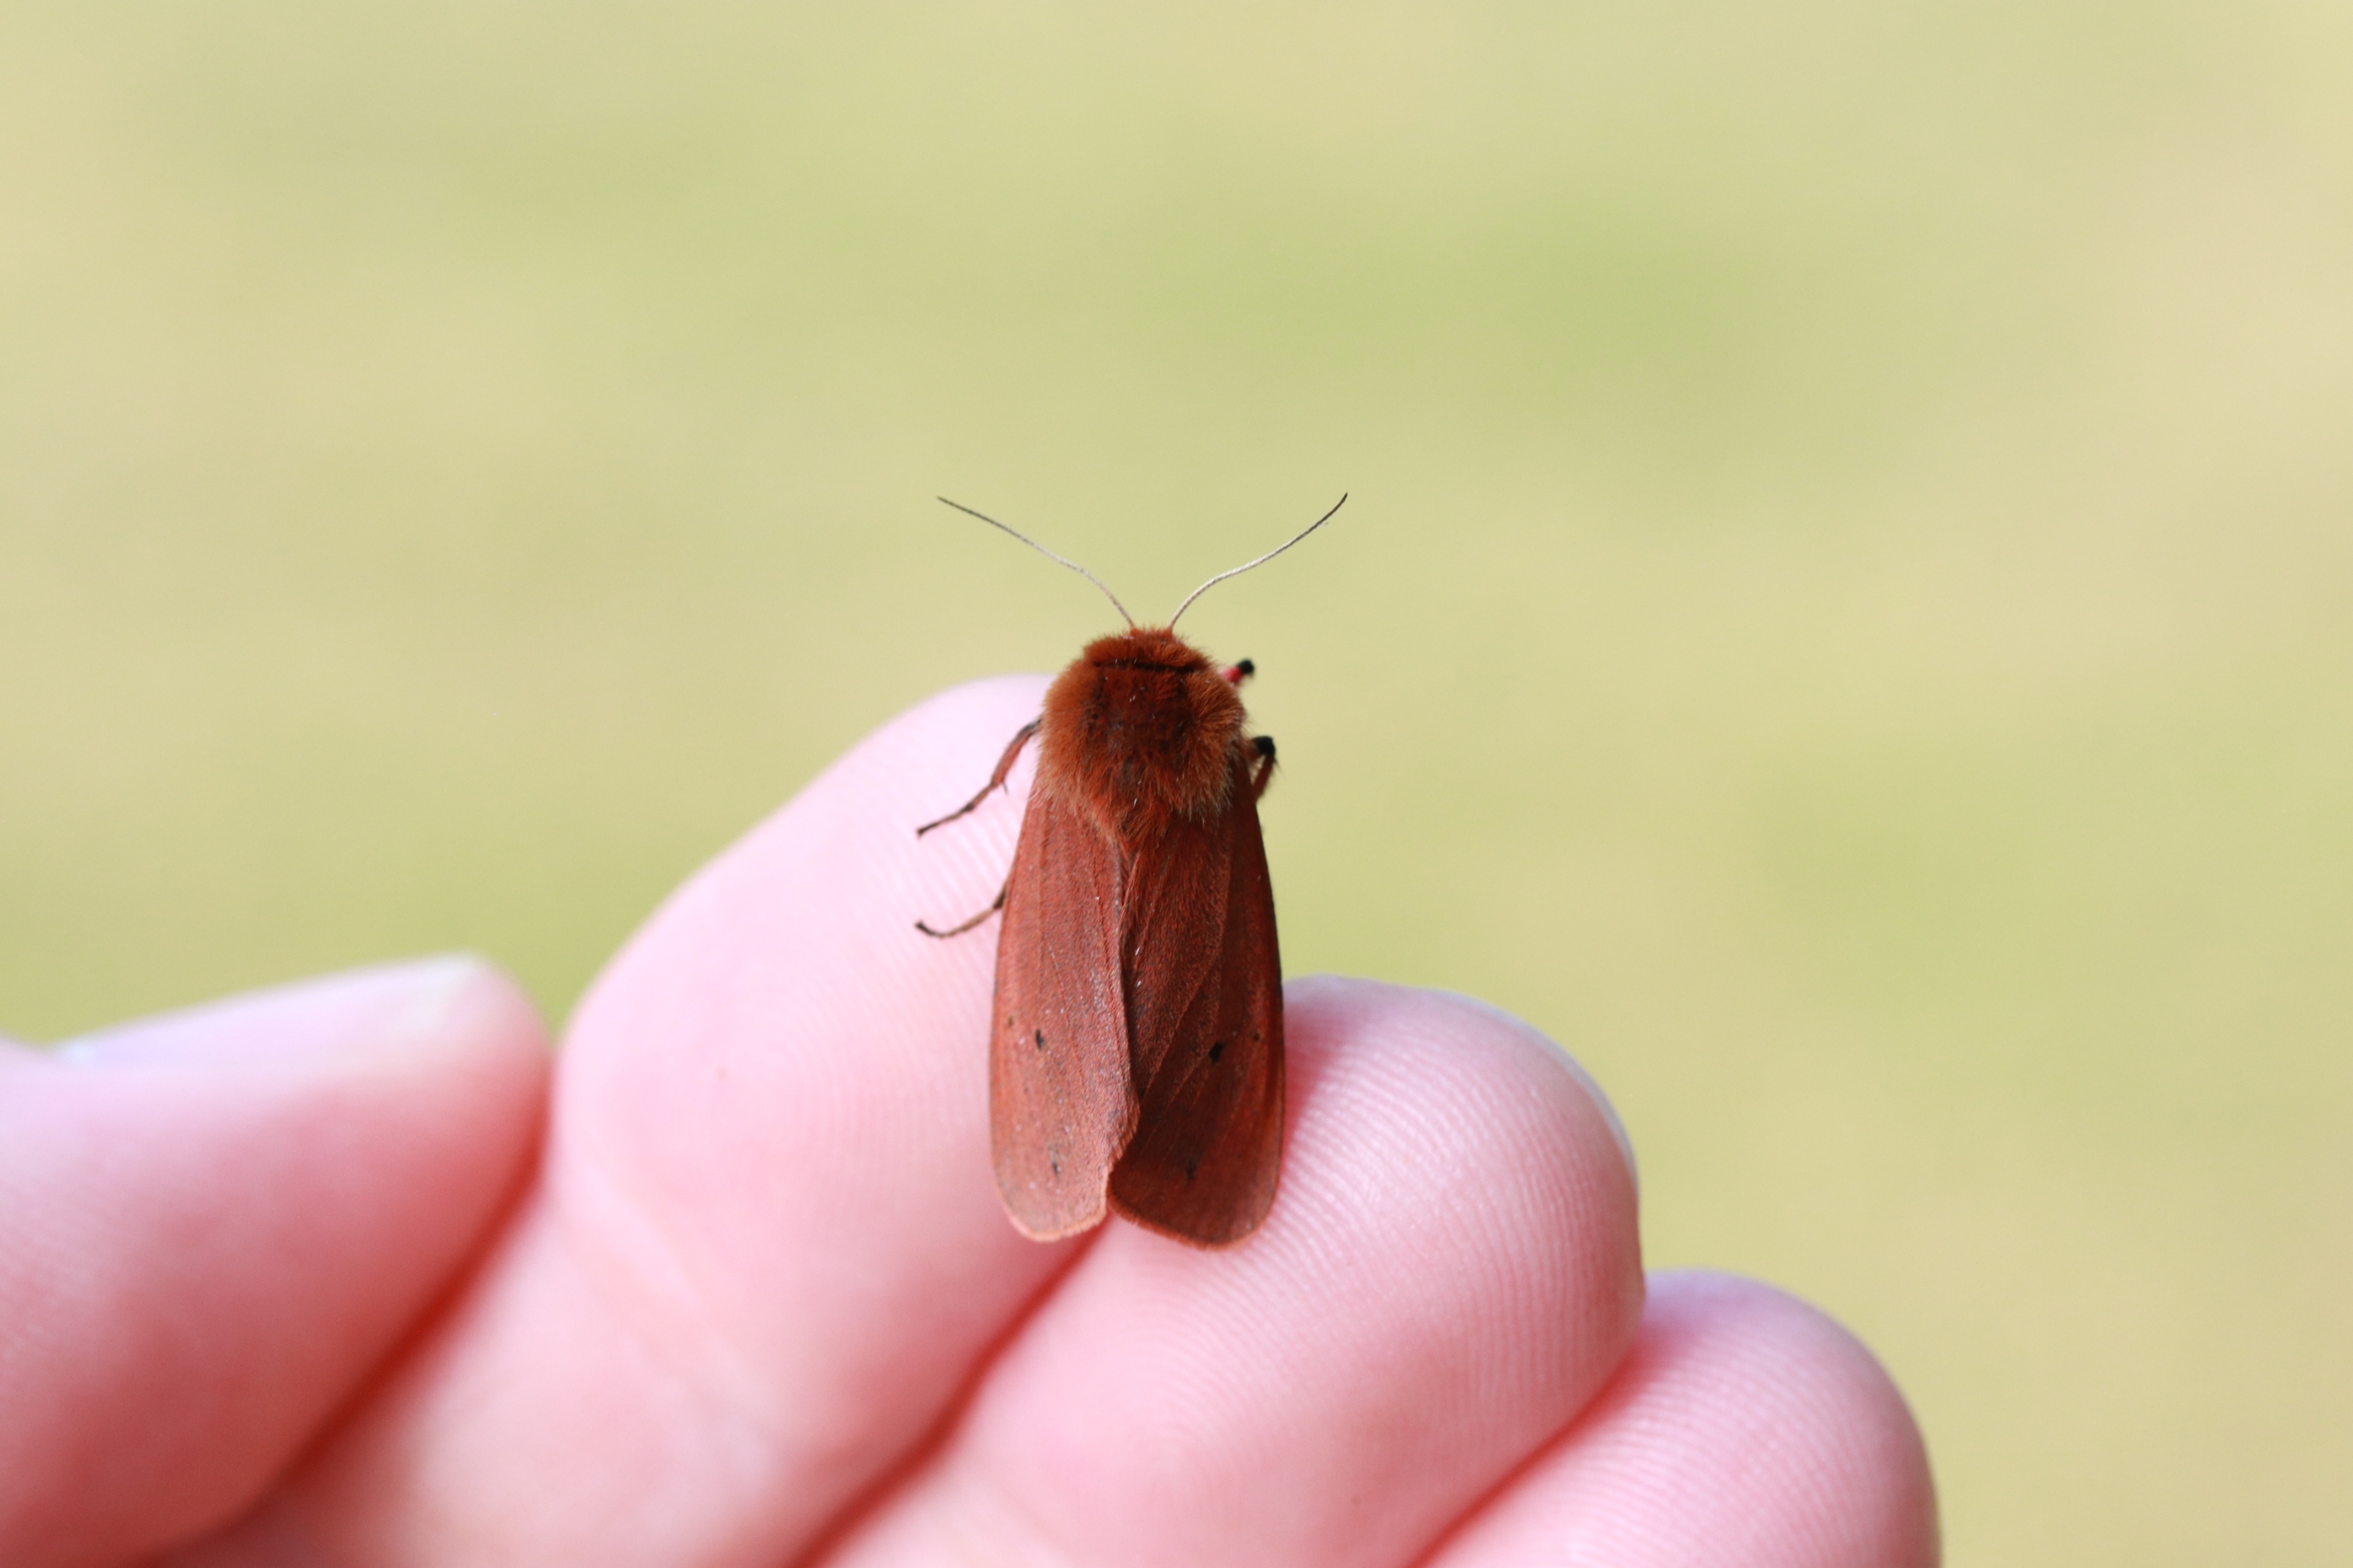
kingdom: Animalia
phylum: Arthropoda
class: Insecta
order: Lepidoptera
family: Erebidae
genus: Phragmatobia
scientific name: Phragmatobia fuliginosa
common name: Kanelbjørn
